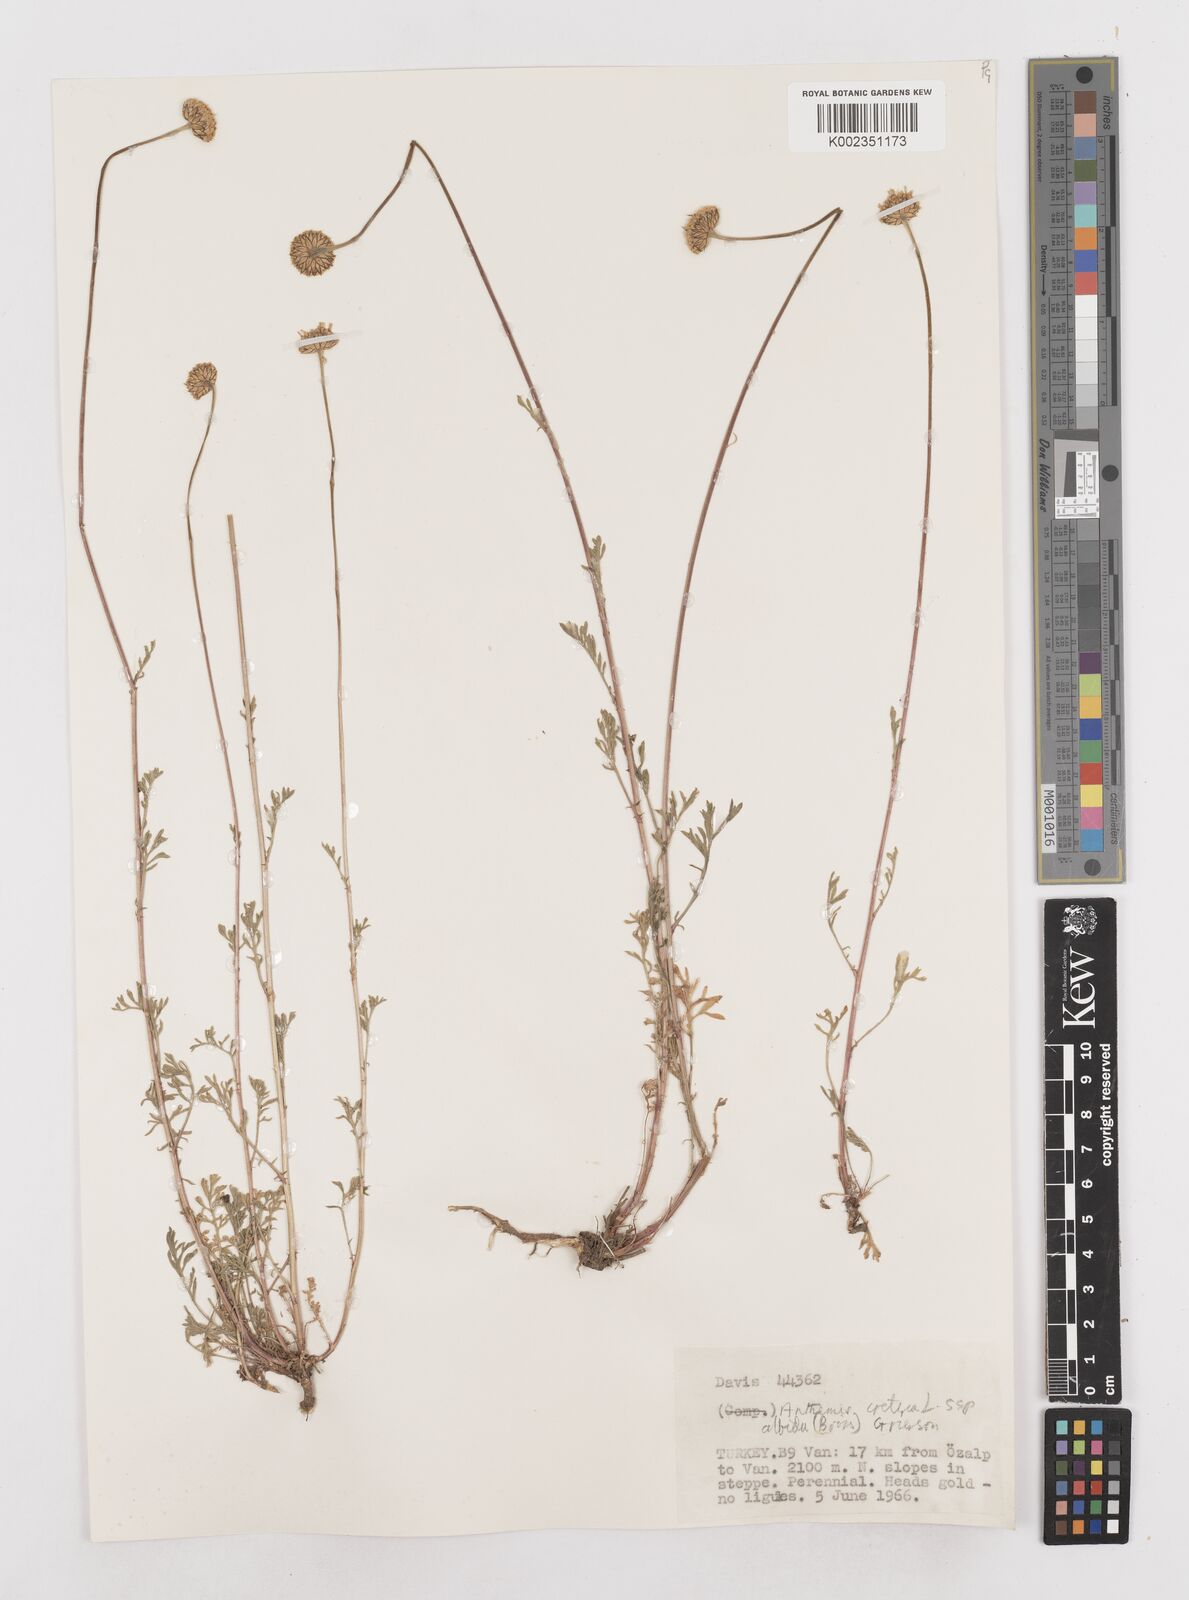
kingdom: Plantae
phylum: Tracheophyta
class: Magnoliopsida
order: Asterales
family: Asteraceae
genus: Anthemis
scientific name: Anthemis cretica
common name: Mountain dog-daisy
